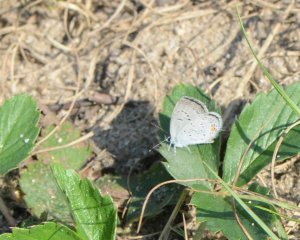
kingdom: Animalia
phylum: Arthropoda
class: Insecta
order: Lepidoptera
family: Lycaenidae
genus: Elkalyce
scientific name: Elkalyce comyntas
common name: Eastern Tailed-Blue
